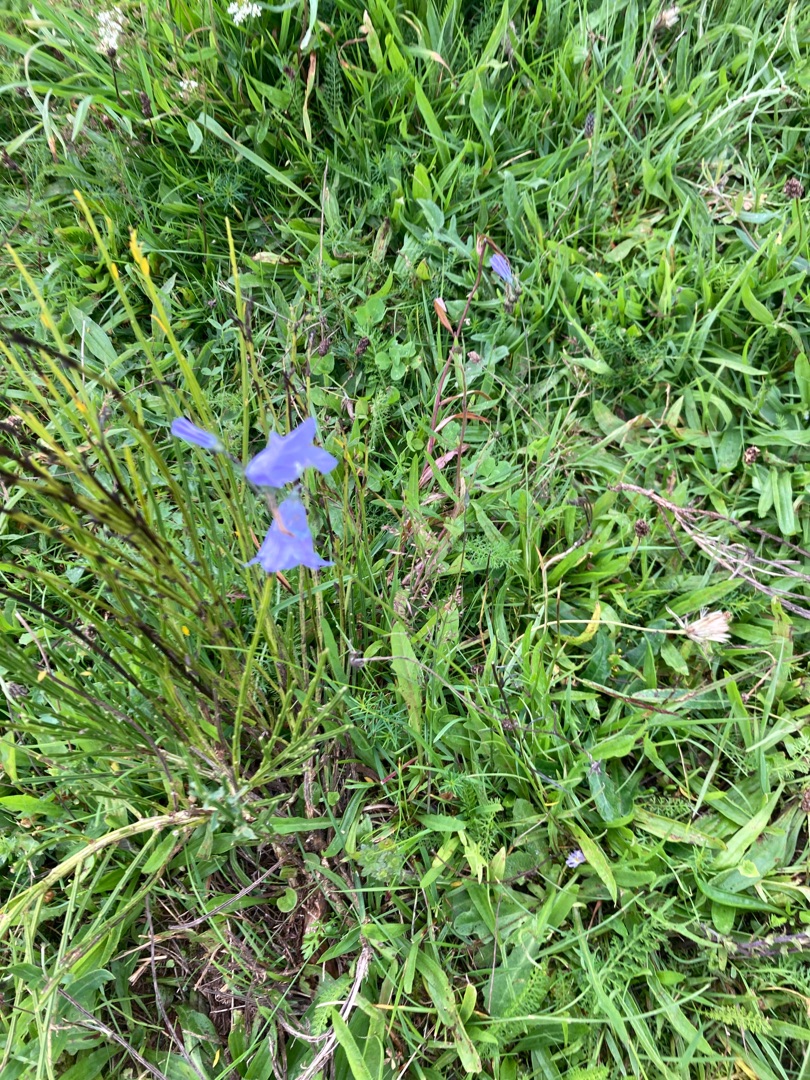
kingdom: Plantae
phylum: Tracheophyta
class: Magnoliopsida
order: Asterales
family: Campanulaceae
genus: Campanula
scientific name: Campanula rotundifolia
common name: Liden klokke
